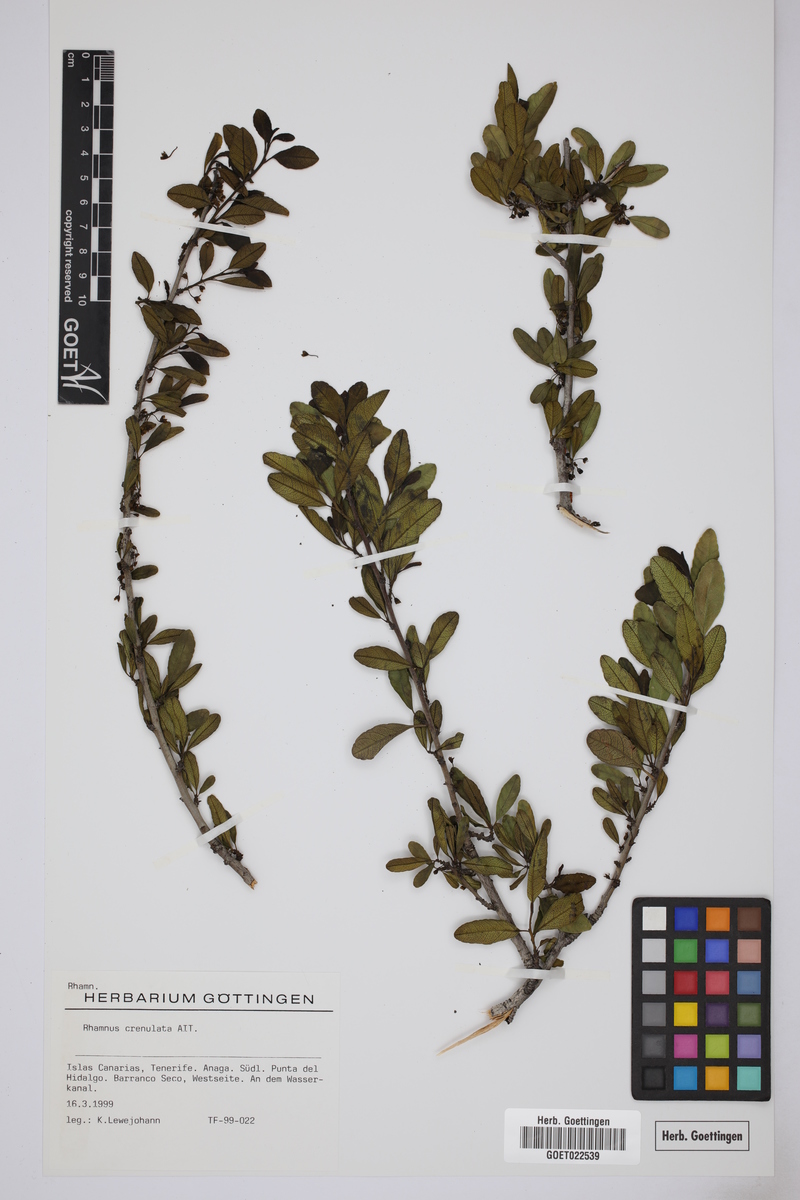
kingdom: Plantae
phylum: Tracheophyta
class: Magnoliopsida
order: Rosales
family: Rhamnaceae
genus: Rhamnus
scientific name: Rhamnus crenulata
